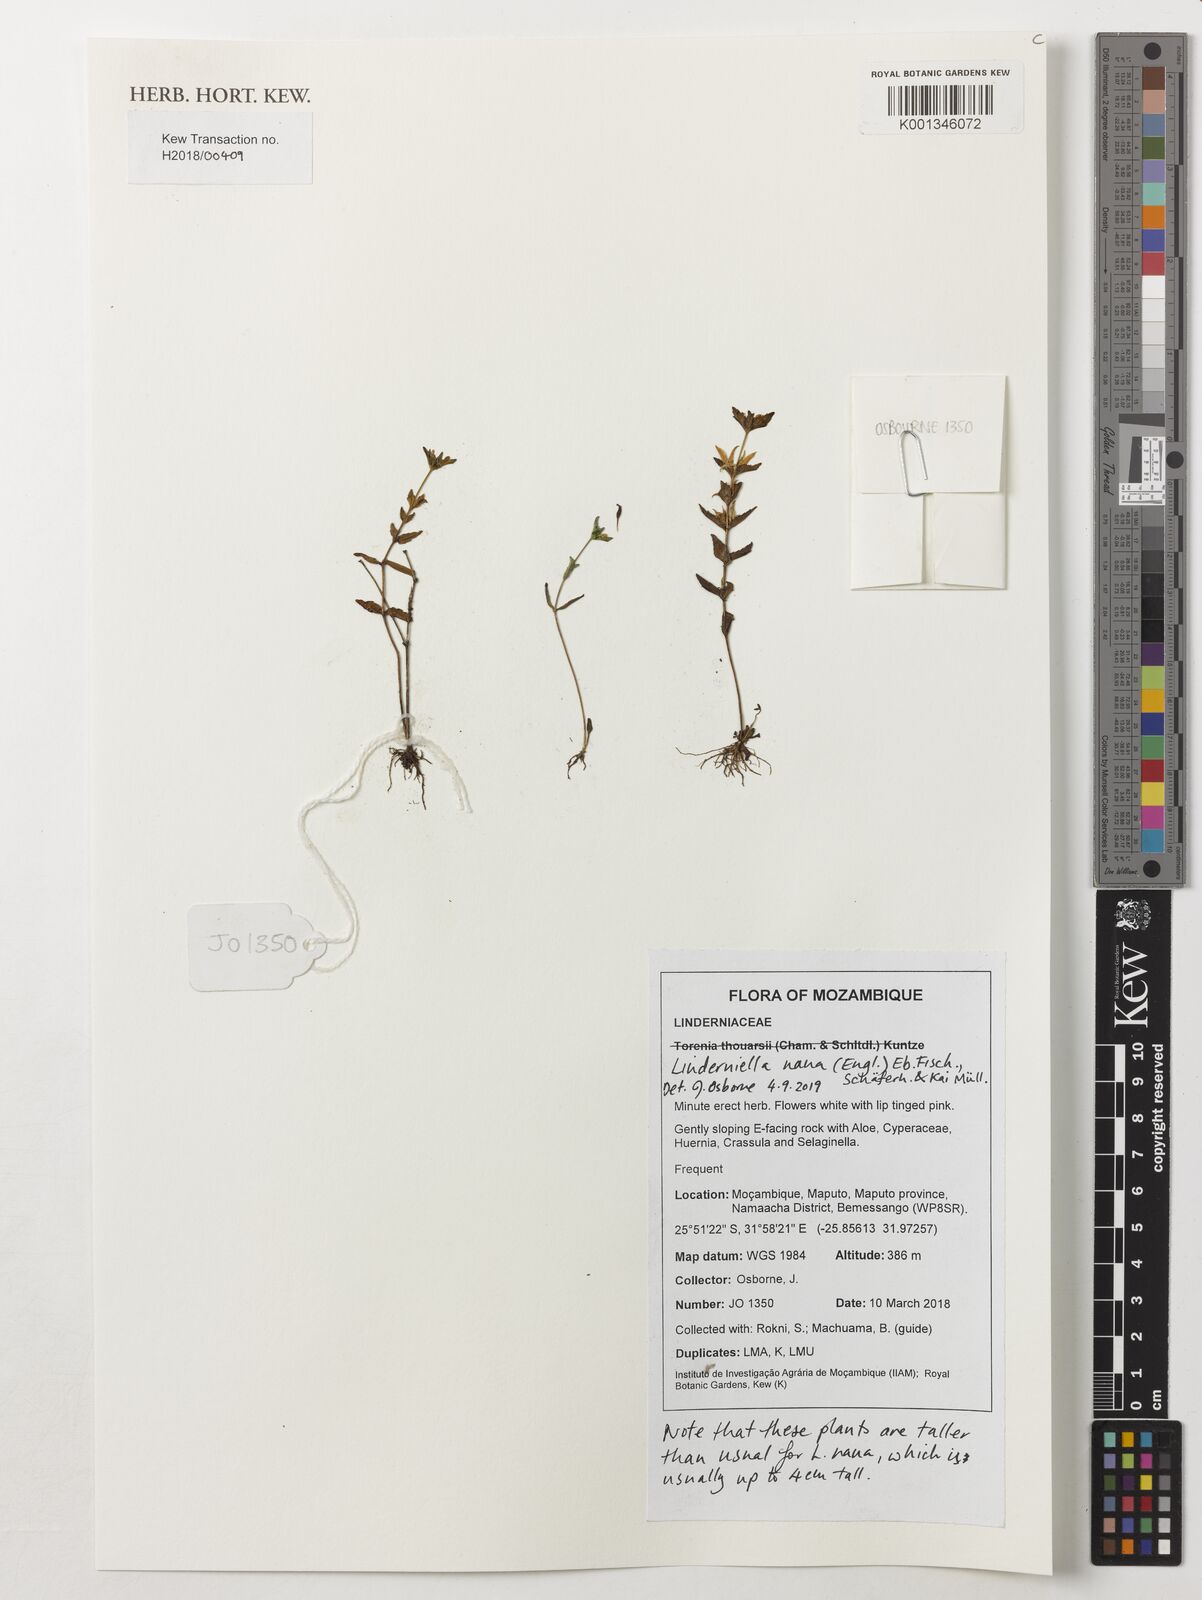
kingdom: Plantae
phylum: Tracheophyta
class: Magnoliopsida
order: Lamiales
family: Linderniaceae
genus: Linderniella
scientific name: Linderniella nana
